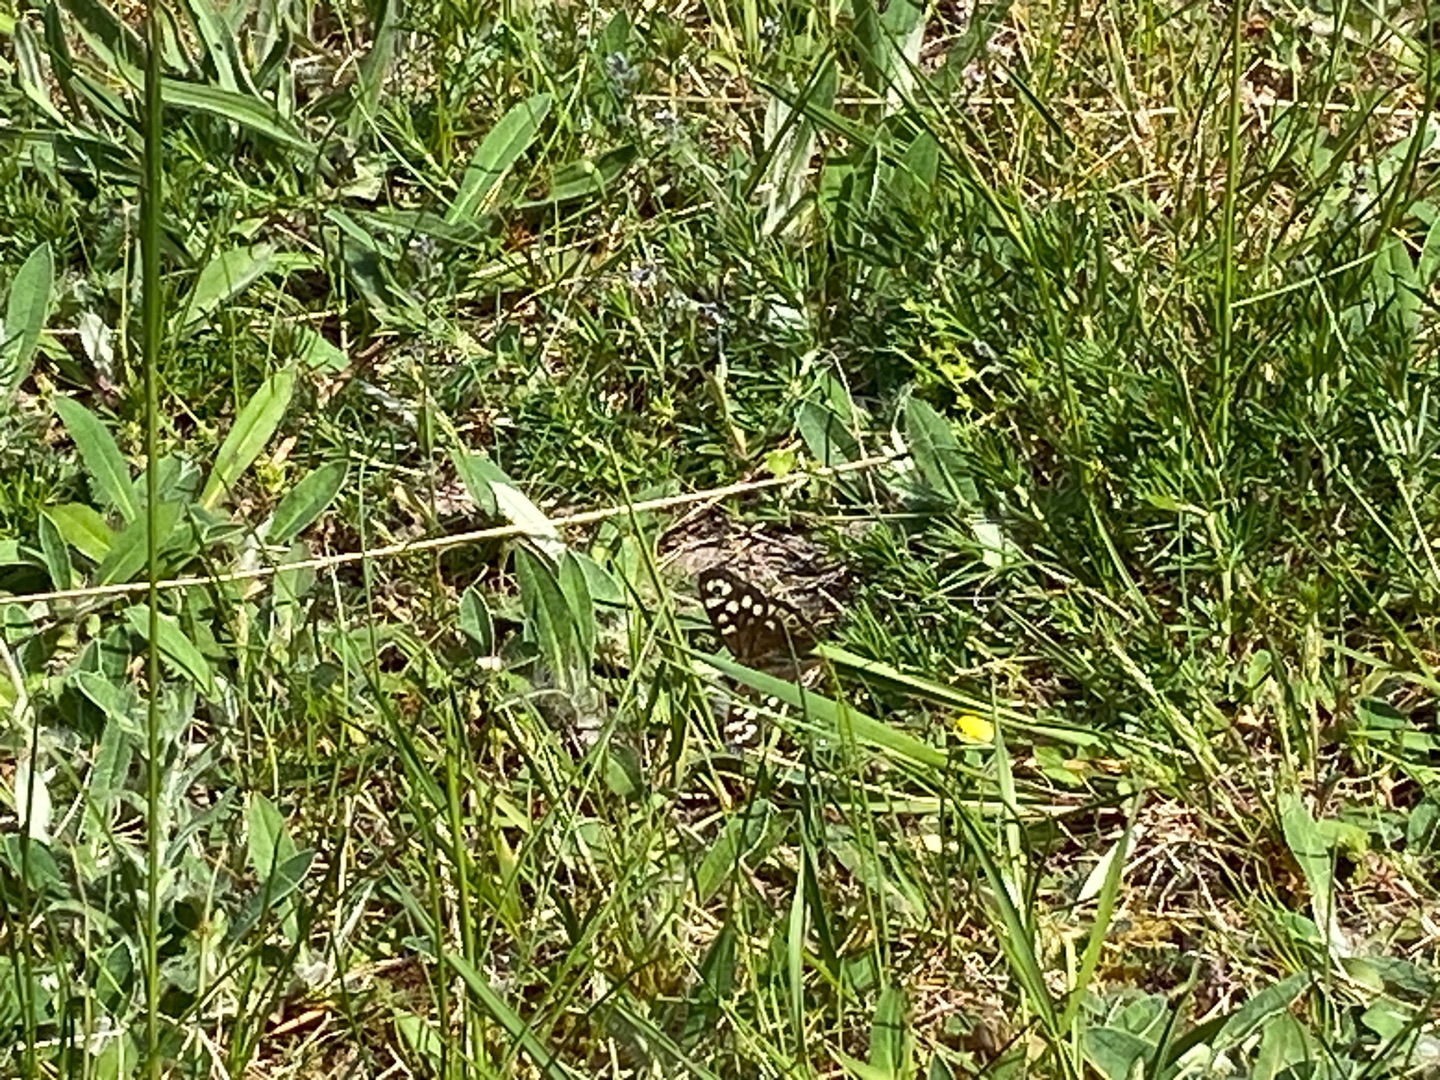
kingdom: Animalia
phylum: Arthropoda
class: Insecta
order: Lepidoptera
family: Nymphalidae
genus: Pararge
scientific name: Pararge aegeria
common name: Skovrandøje
